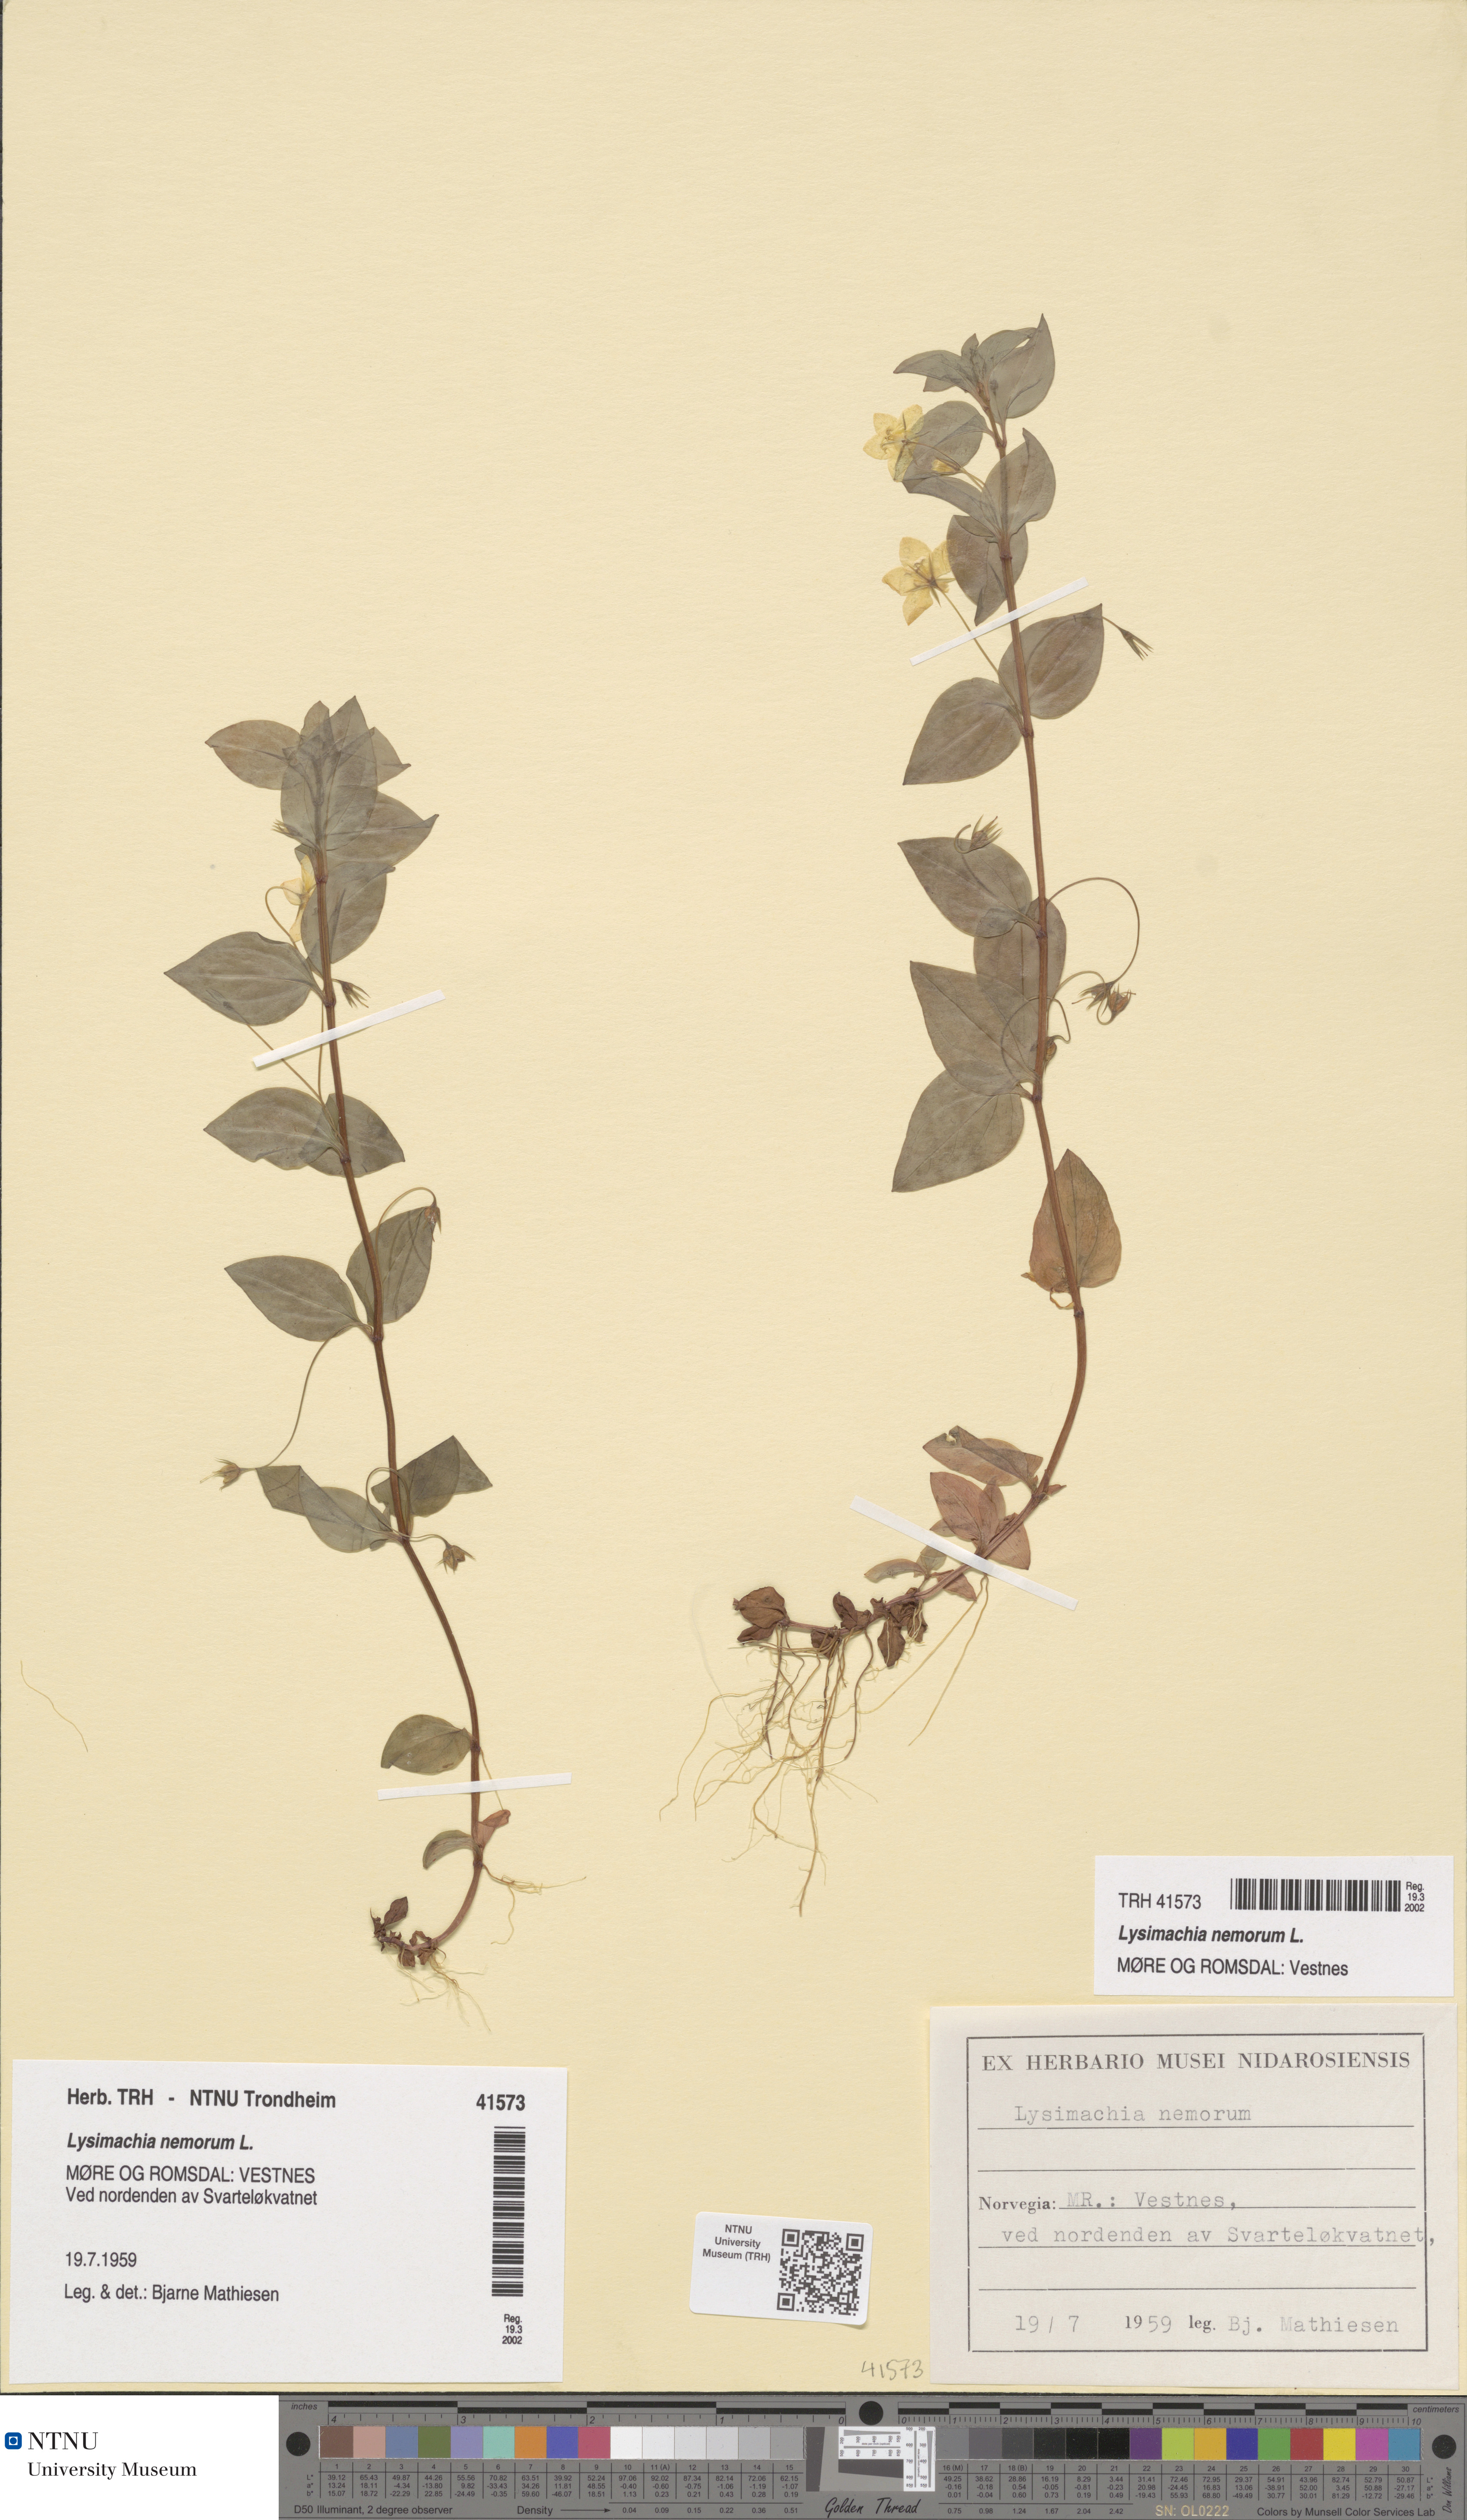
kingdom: Plantae
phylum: Tracheophyta
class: Magnoliopsida
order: Ericales
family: Primulaceae
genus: Lysimachia
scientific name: Lysimachia nemorum
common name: Yellow pimpernel
